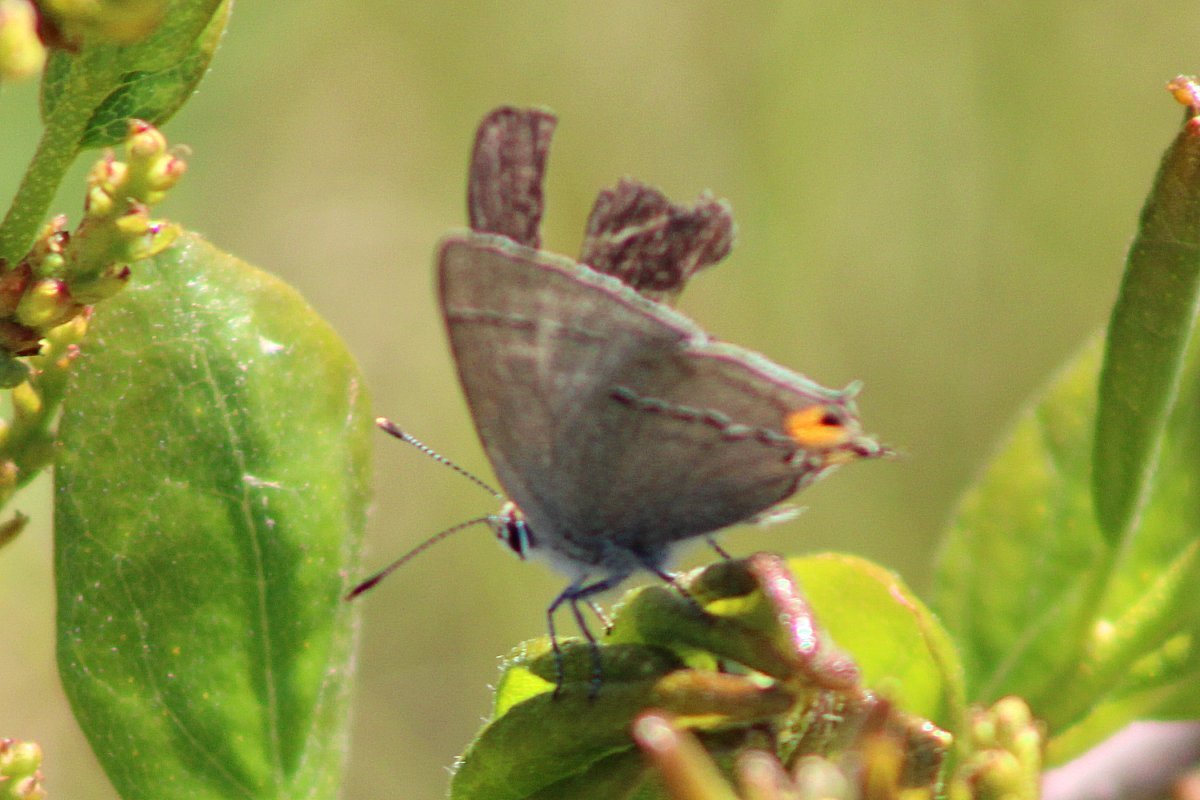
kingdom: Animalia
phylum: Arthropoda
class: Insecta
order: Lepidoptera
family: Lycaenidae
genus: Strymon
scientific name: Strymon melinus
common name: Gray Hairstreak
